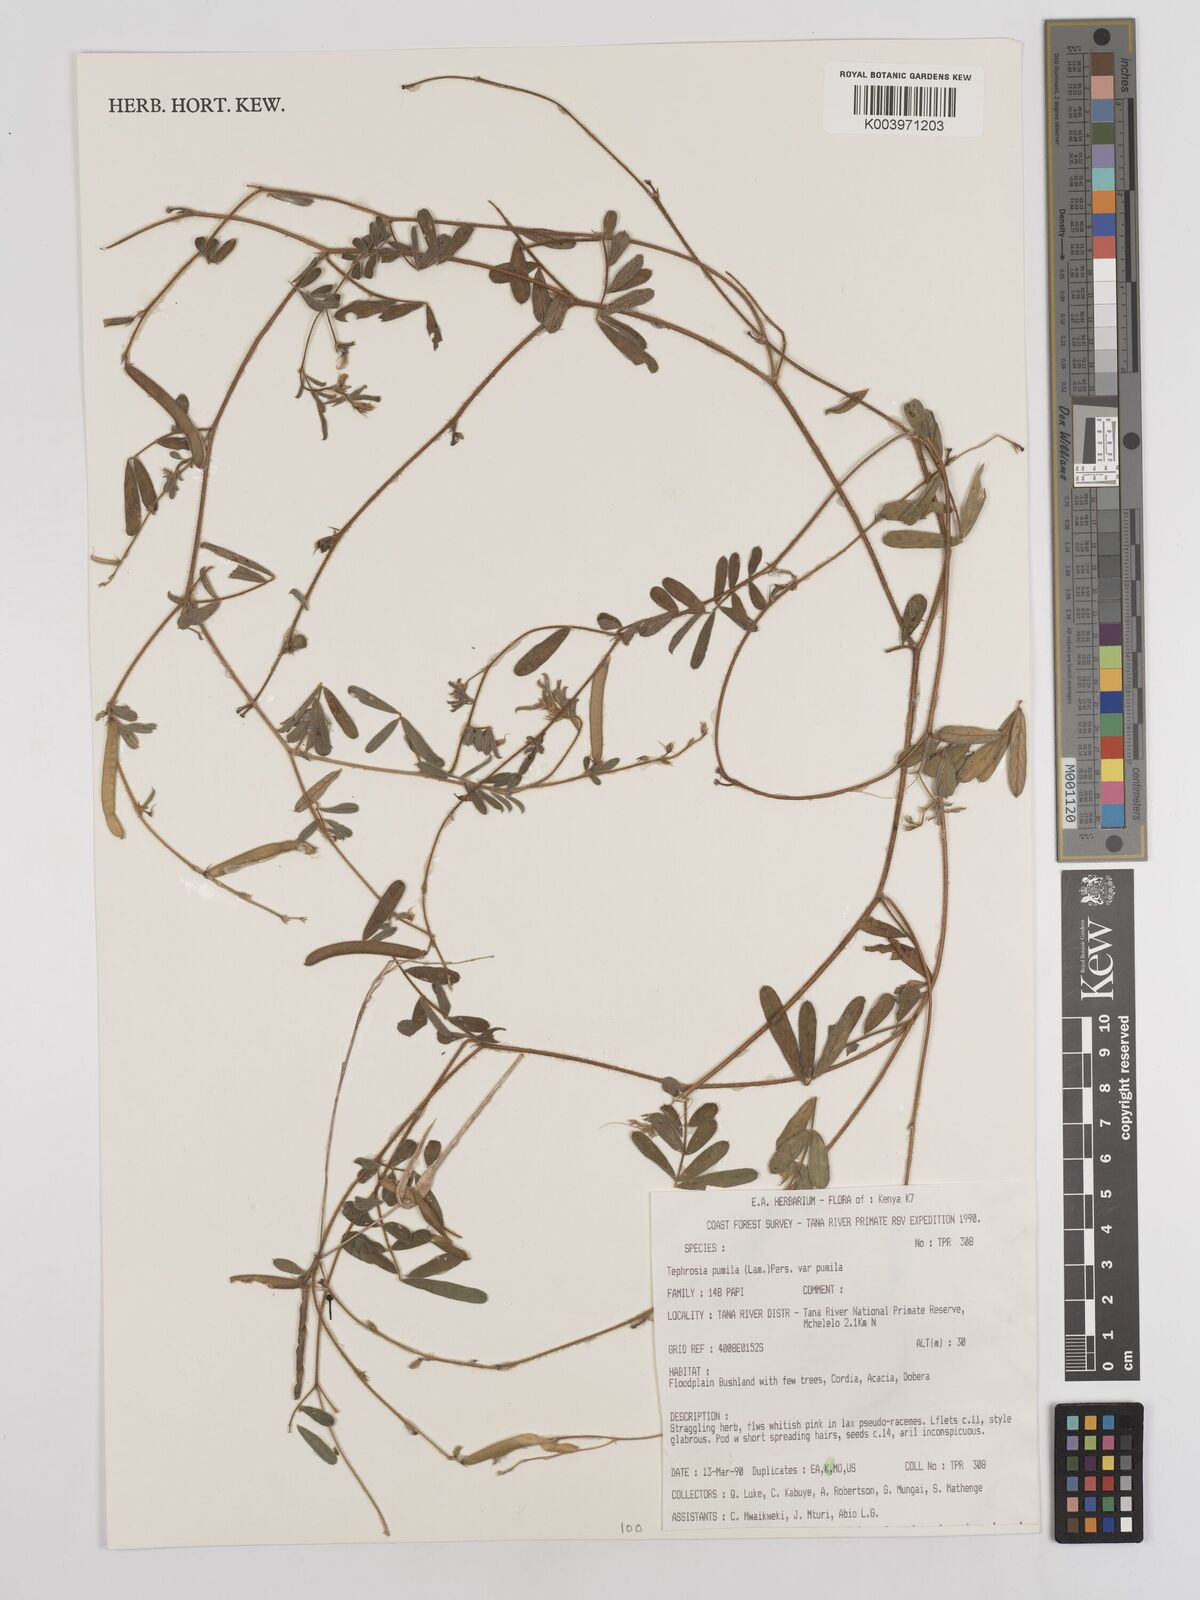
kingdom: Plantae
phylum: Tracheophyta
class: Magnoliopsida
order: Fabales
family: Fabaceae
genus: Tephrosia
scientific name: Tephrosia pumila
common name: Indigo sauvage
